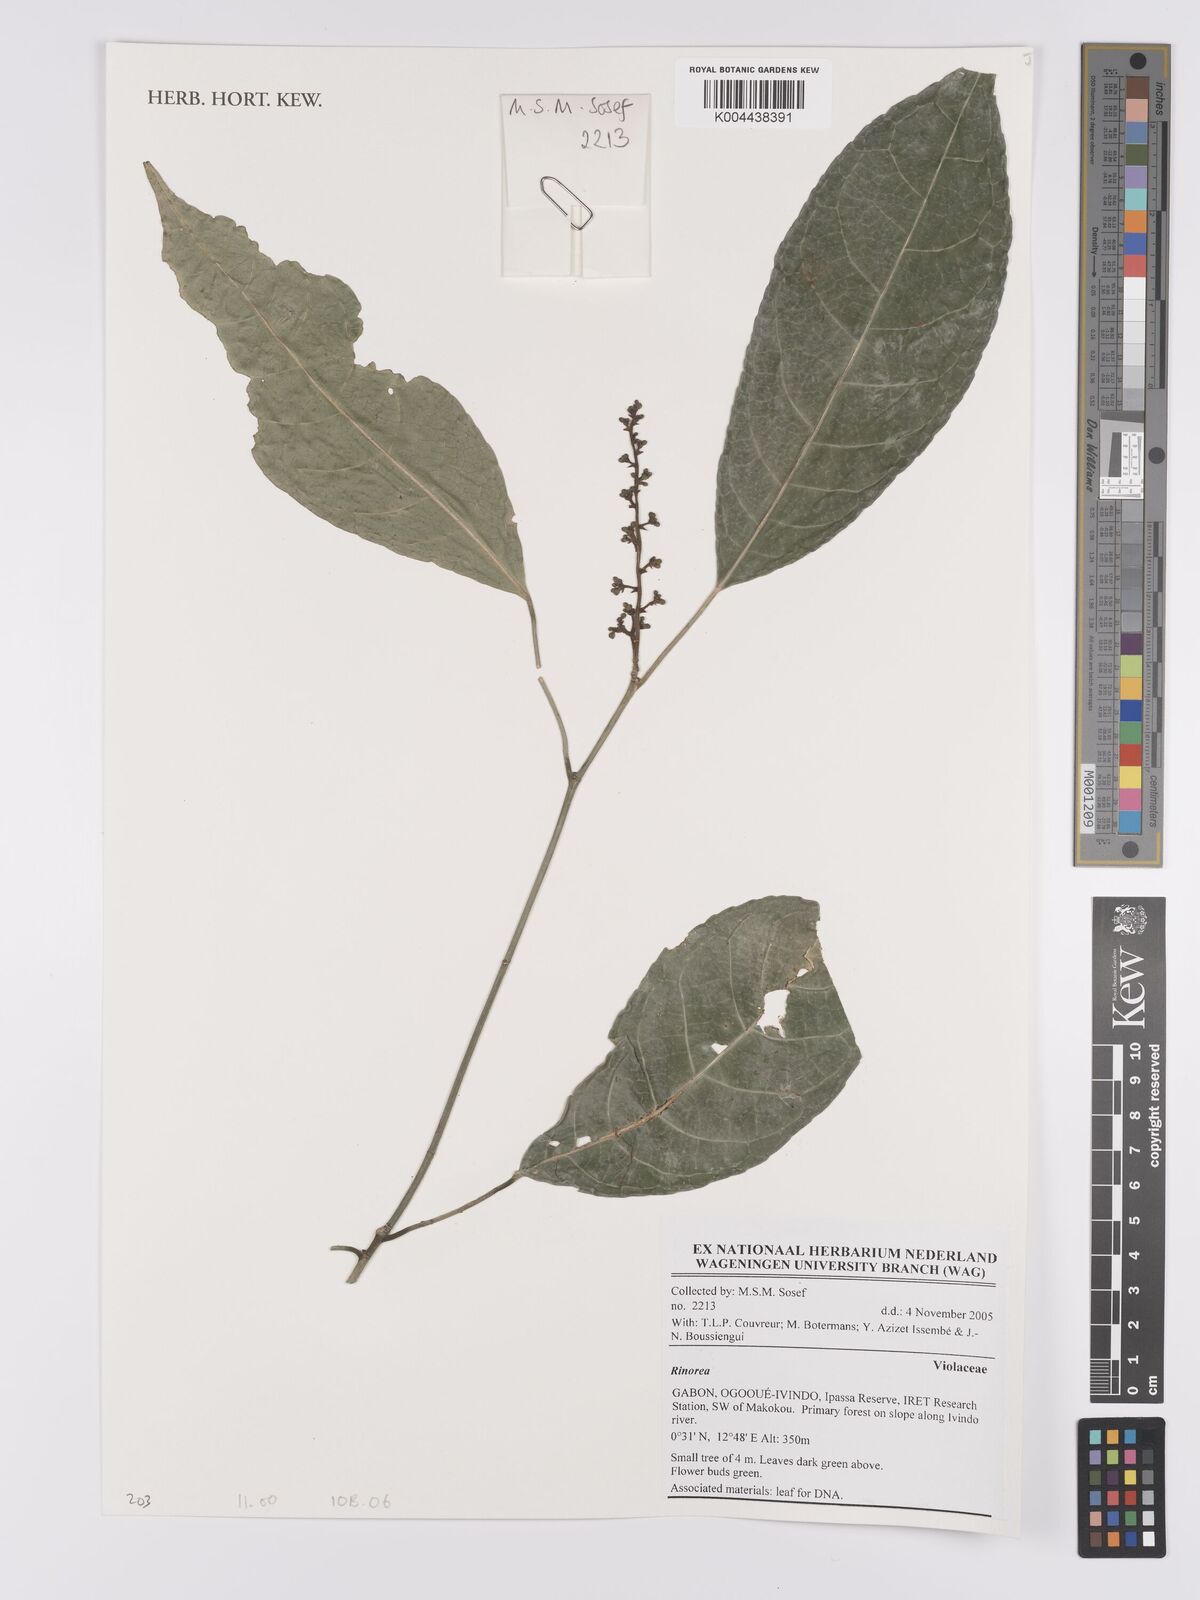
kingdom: Plantae
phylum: Tracheophyta
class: Magnoliopsida
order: Malpighiales
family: Violaceae
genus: Rinorea
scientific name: Rinorea
